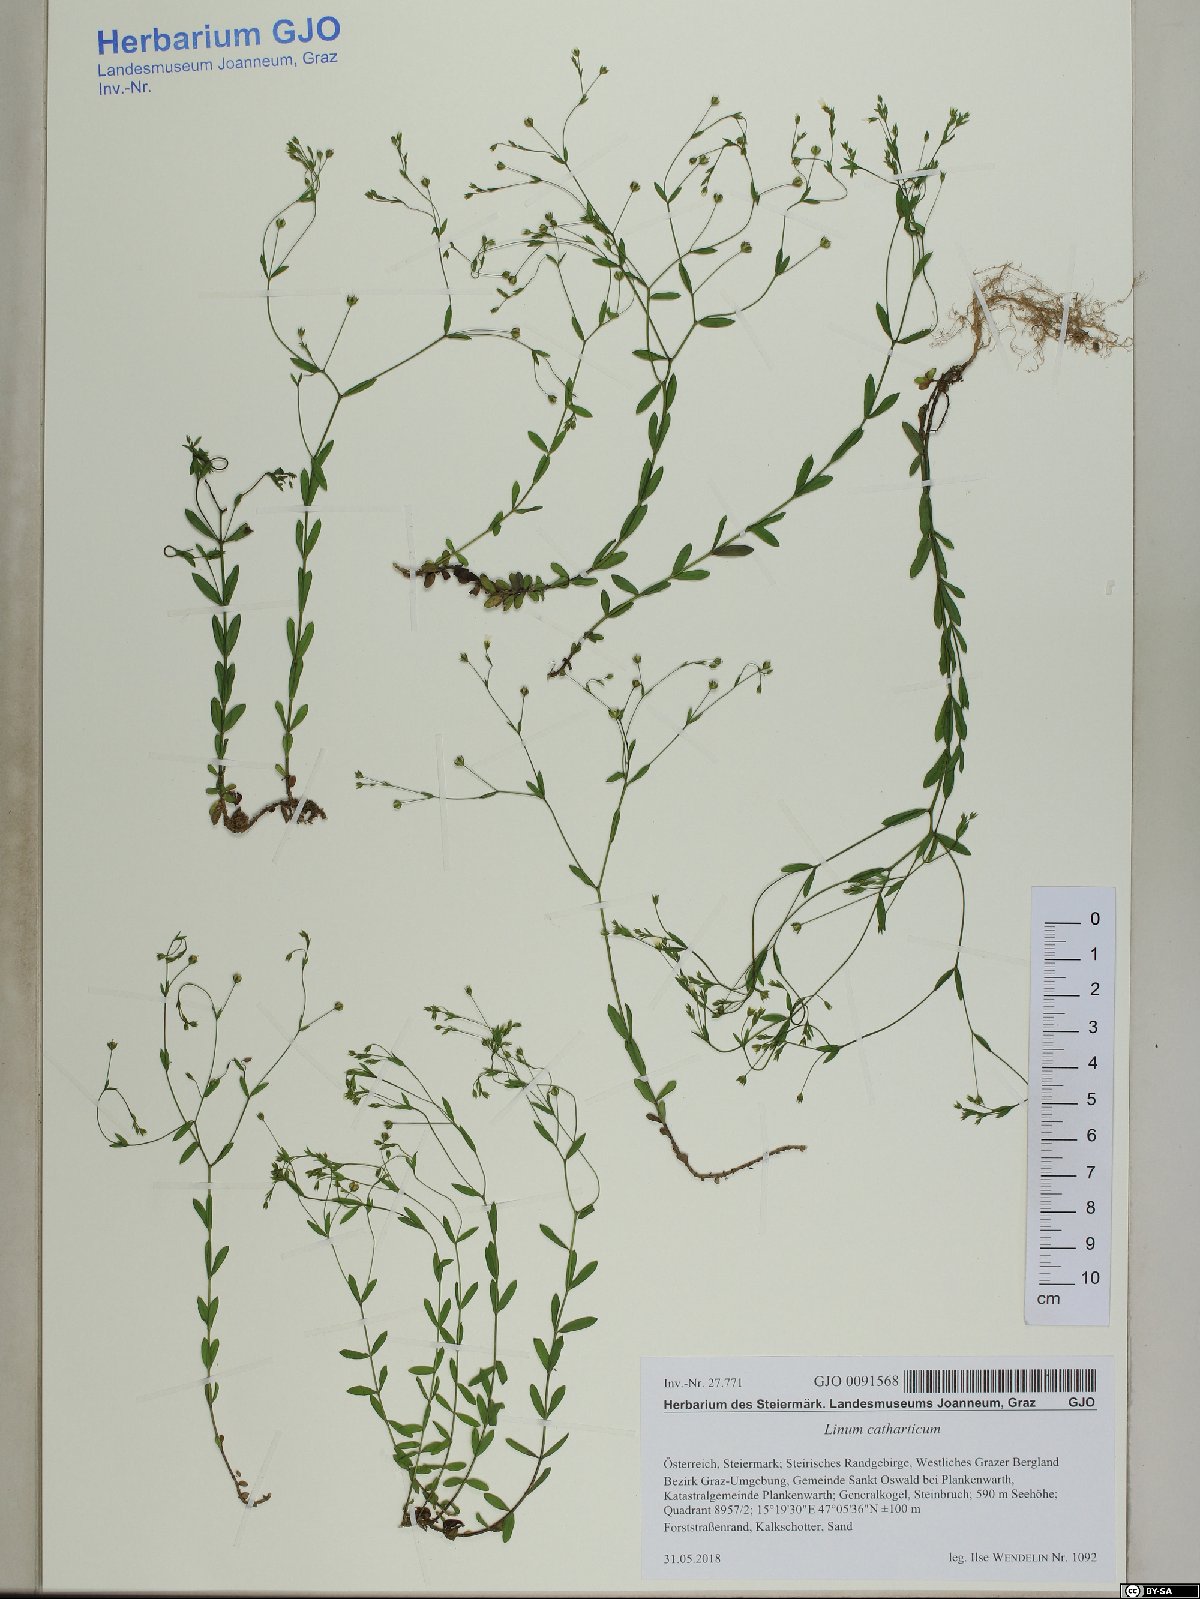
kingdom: Plantae
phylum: Tracheophyta
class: Magnoliopsida
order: Malpighiales
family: Linaceae
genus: Linum
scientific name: Linum catharticum
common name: Fairy flax
